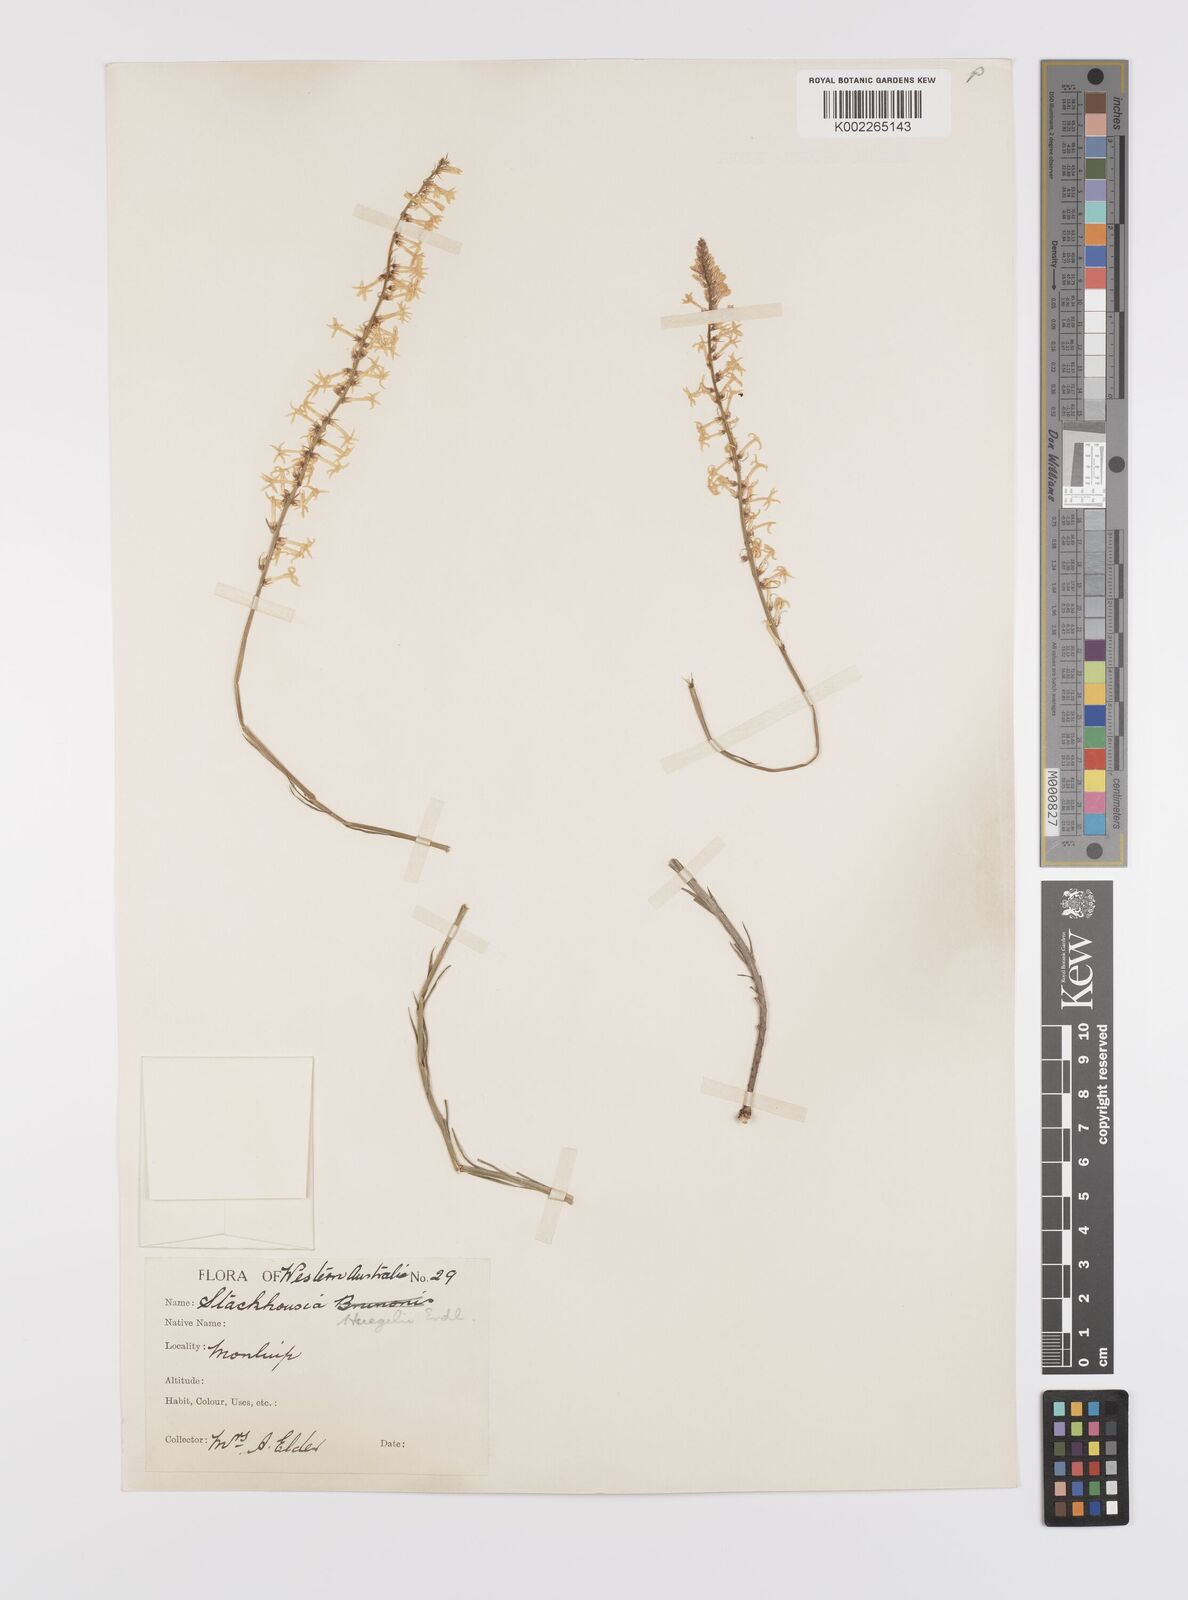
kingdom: Plantae
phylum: Tracheophyta
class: Magnoliopsida
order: Celastrales
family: Celastraceae
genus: Stackhousia
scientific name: Stackhousia monogyna
